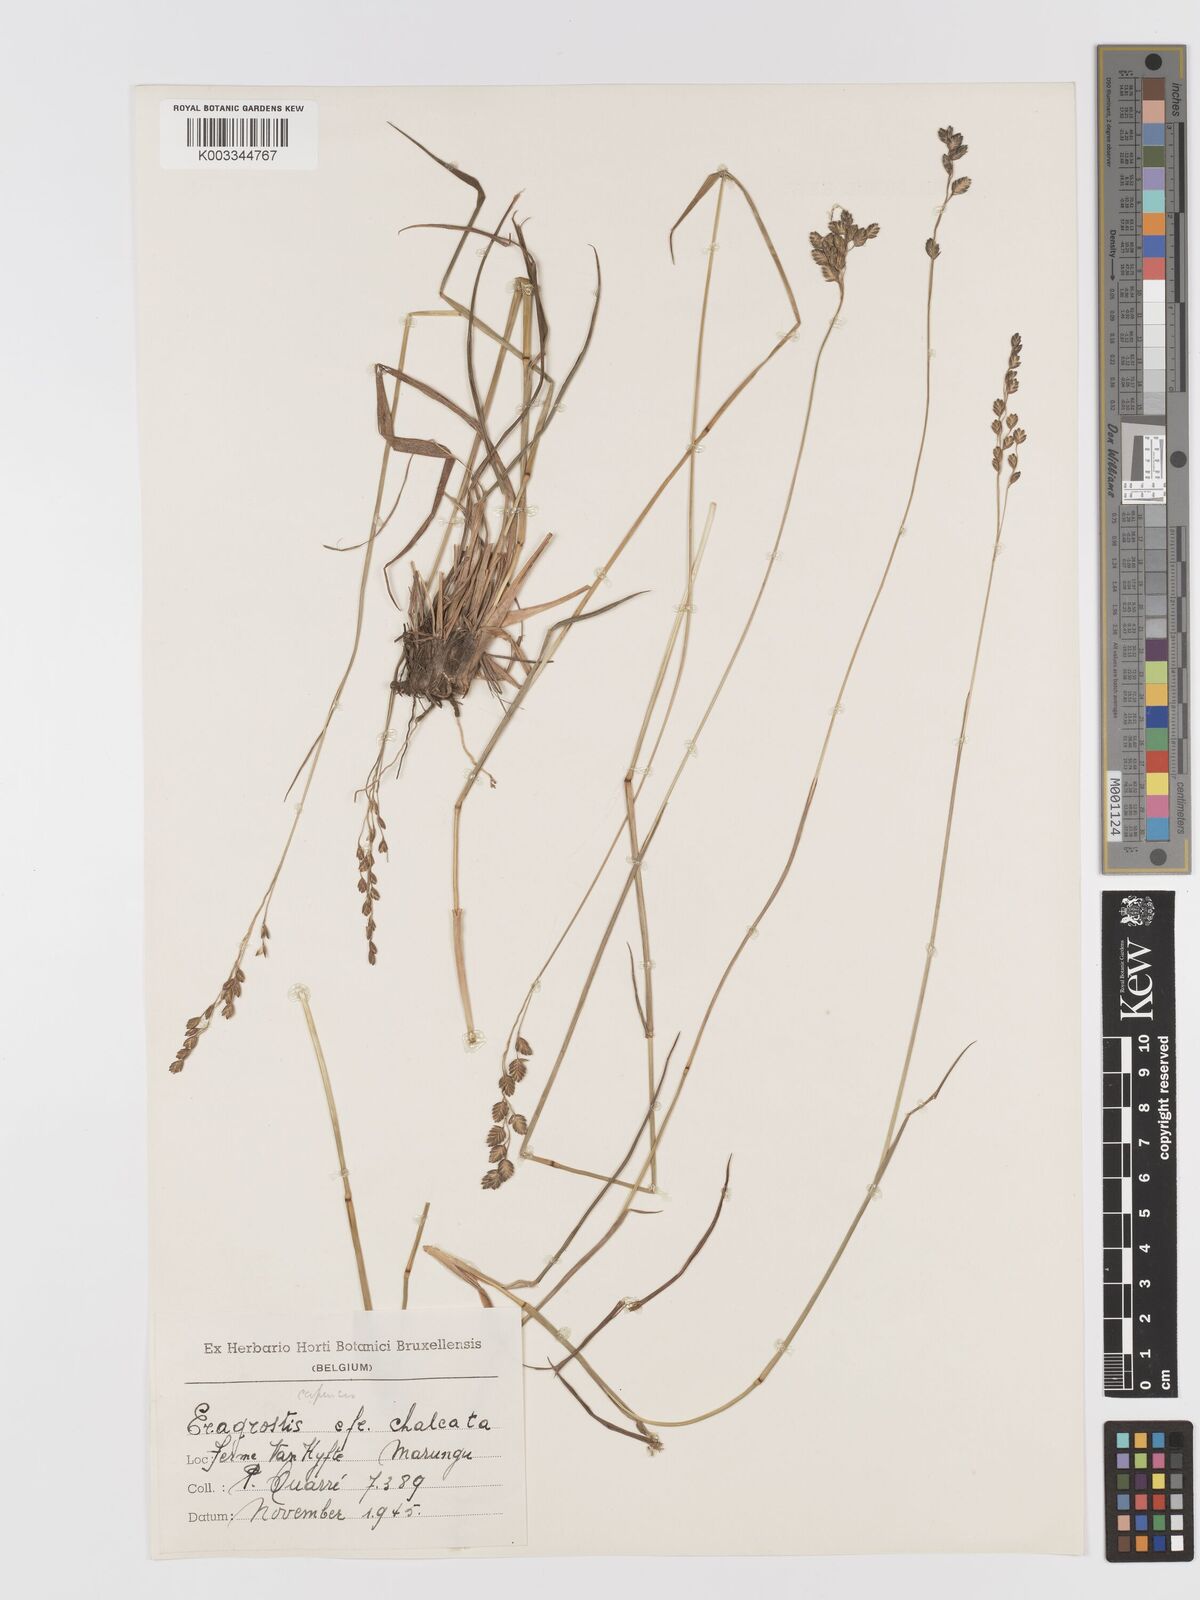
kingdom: Plantae
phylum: Tracheophyta
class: Liliopsida
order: Poales
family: Poaceae
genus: Eragrostis
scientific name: Eragrostis capensis
